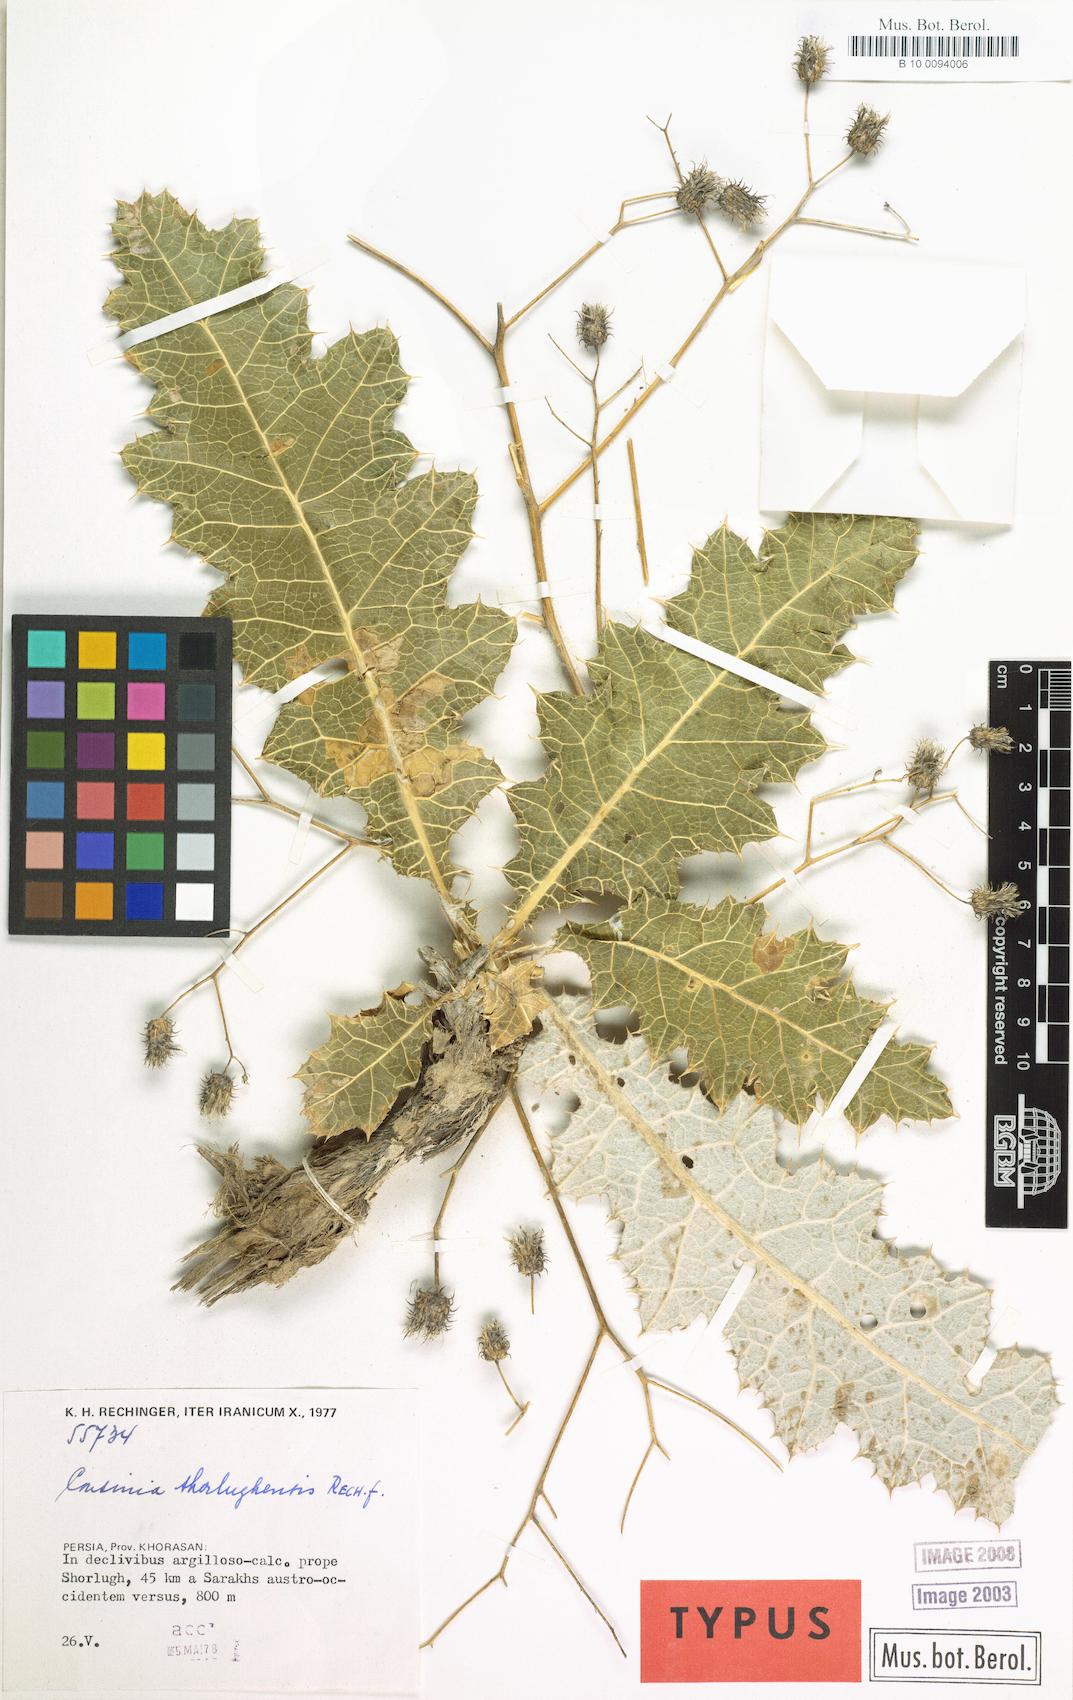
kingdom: Plantae
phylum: Tracheophyta
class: Magnoliopsida
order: Asterales
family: Asteraceae
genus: Cousinia
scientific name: Cousinia shorlughensis
